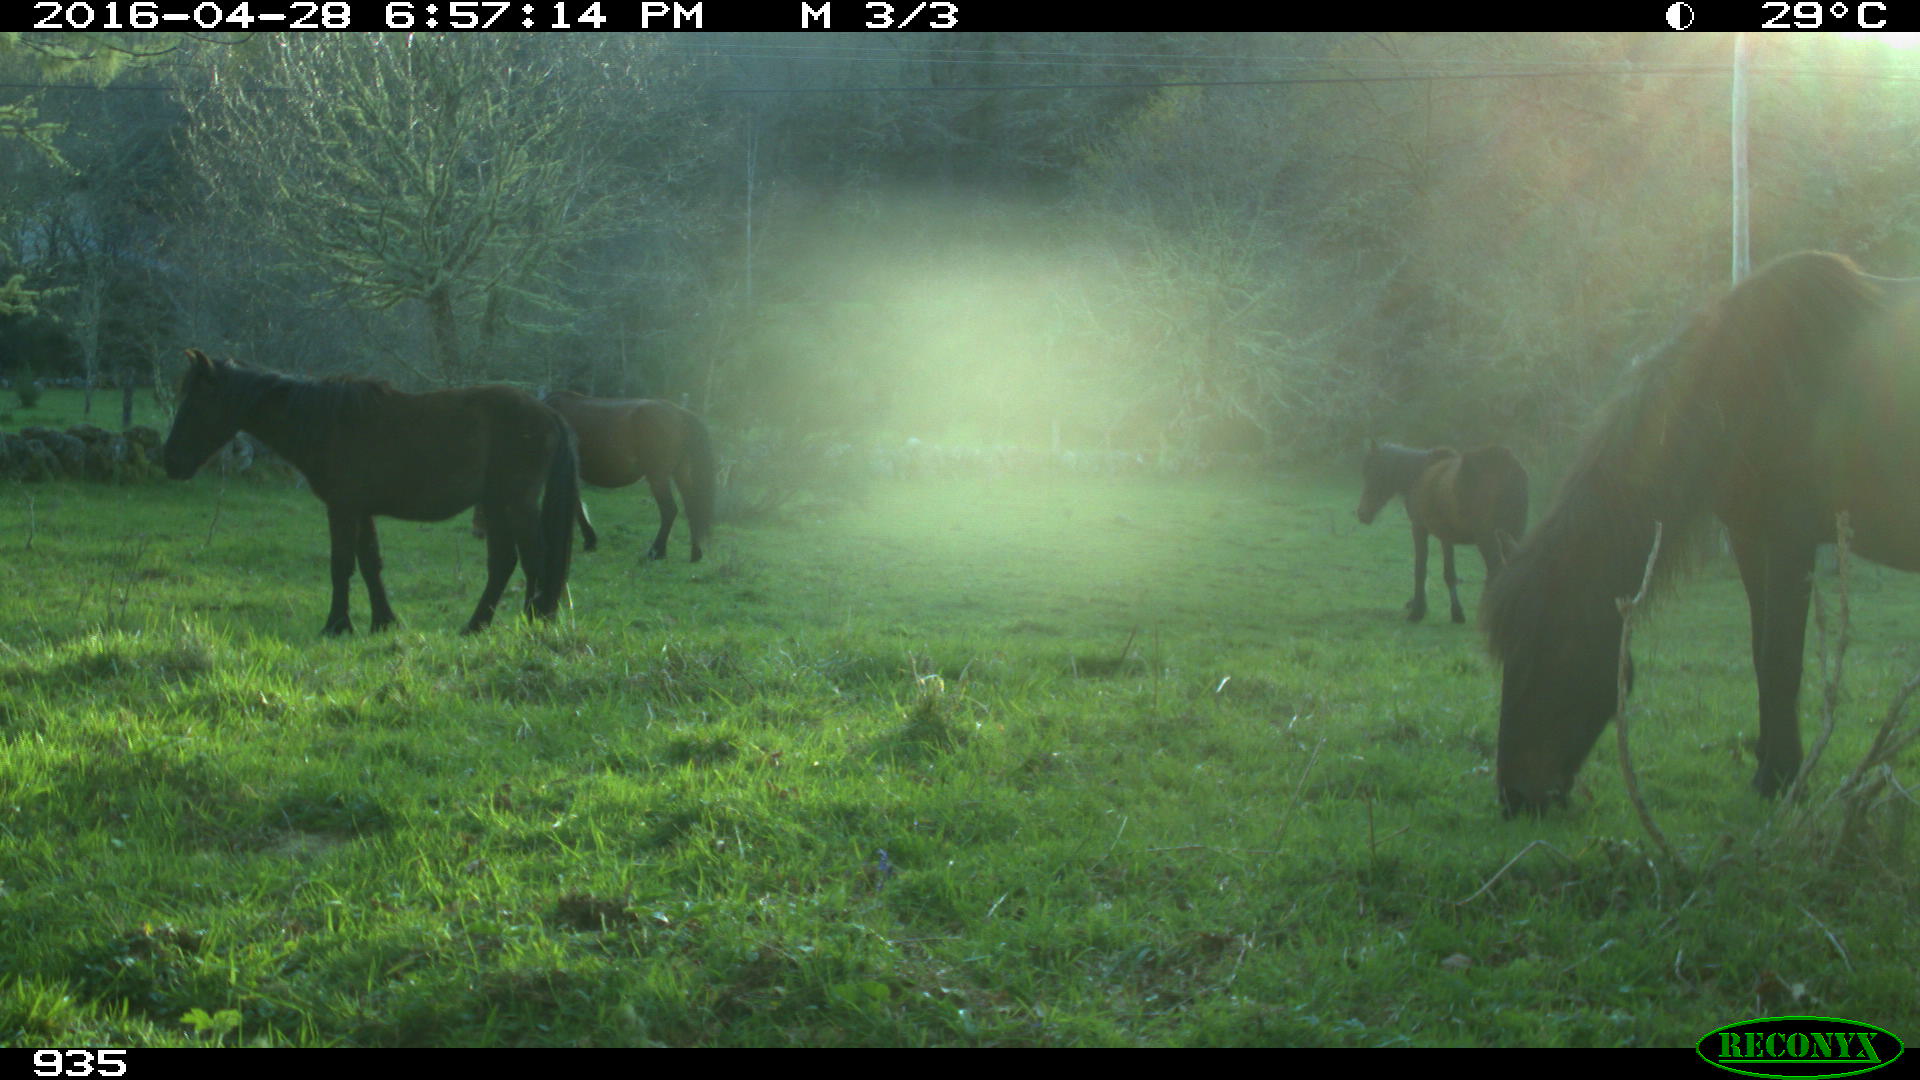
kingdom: Animalia
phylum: Chordata
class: Mammalia
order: Perissodactyla
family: Equidae
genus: Equus
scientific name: Equus caballus
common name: Horse
